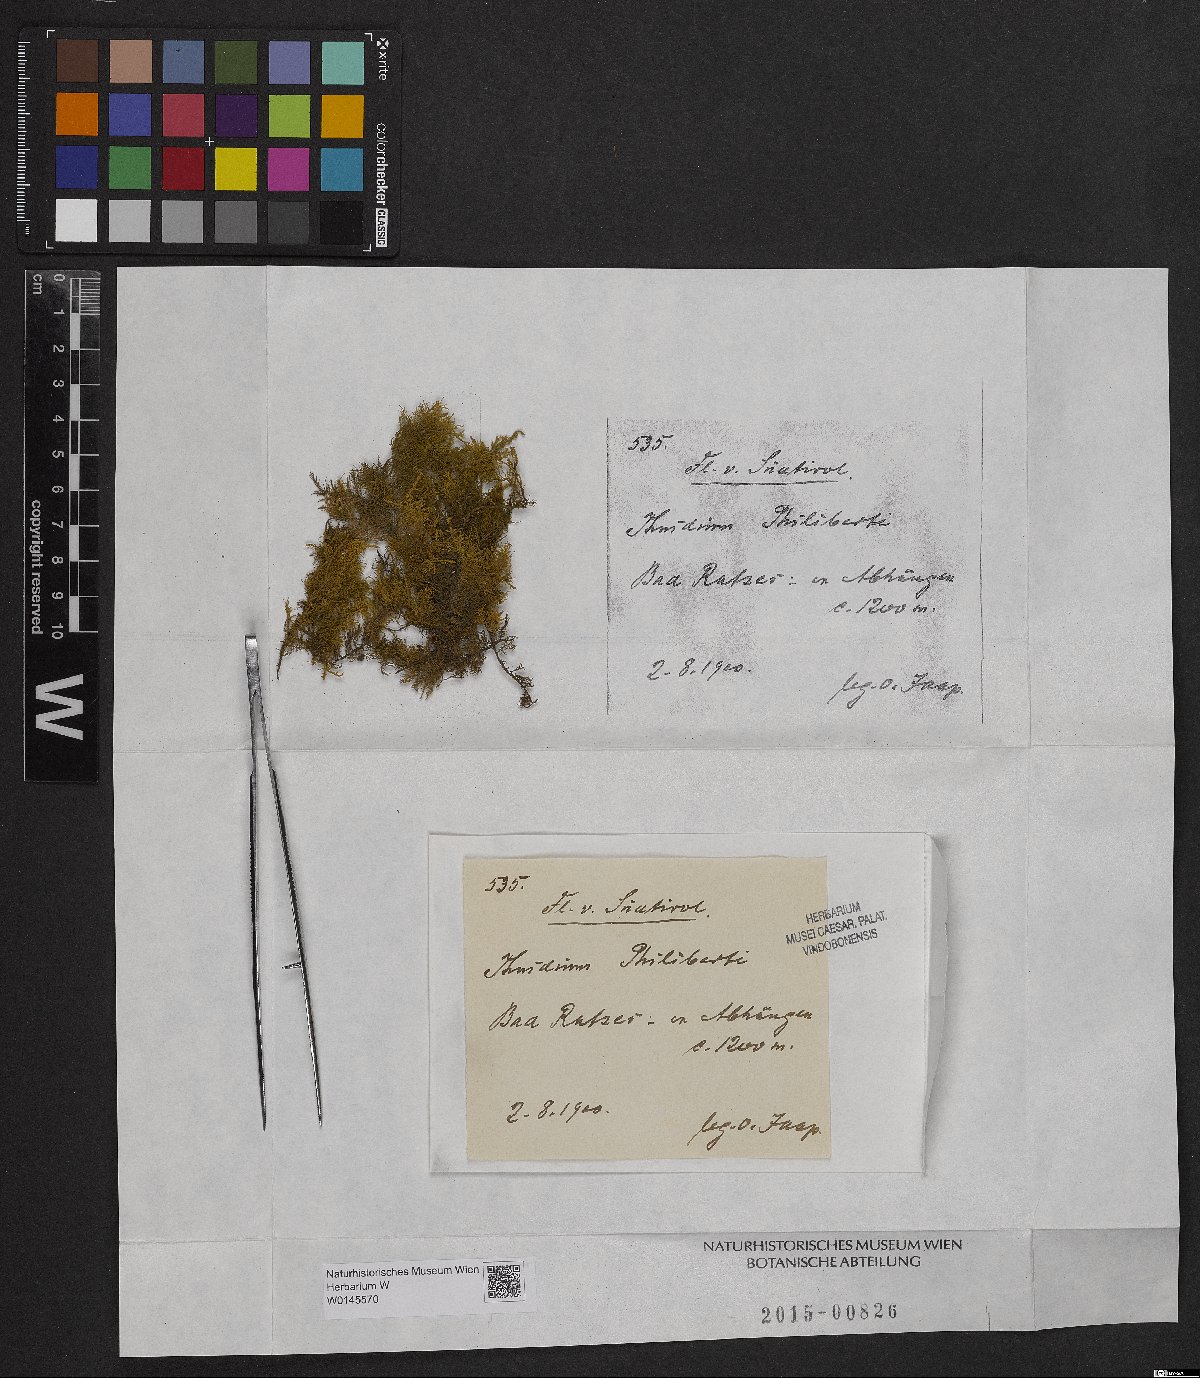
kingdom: Plantae
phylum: Bryophyta
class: Bryopsida
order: Hypnales
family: Thuidiaceae
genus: Thuidium
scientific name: Thuidium assimile
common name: Philibert's fern moss
